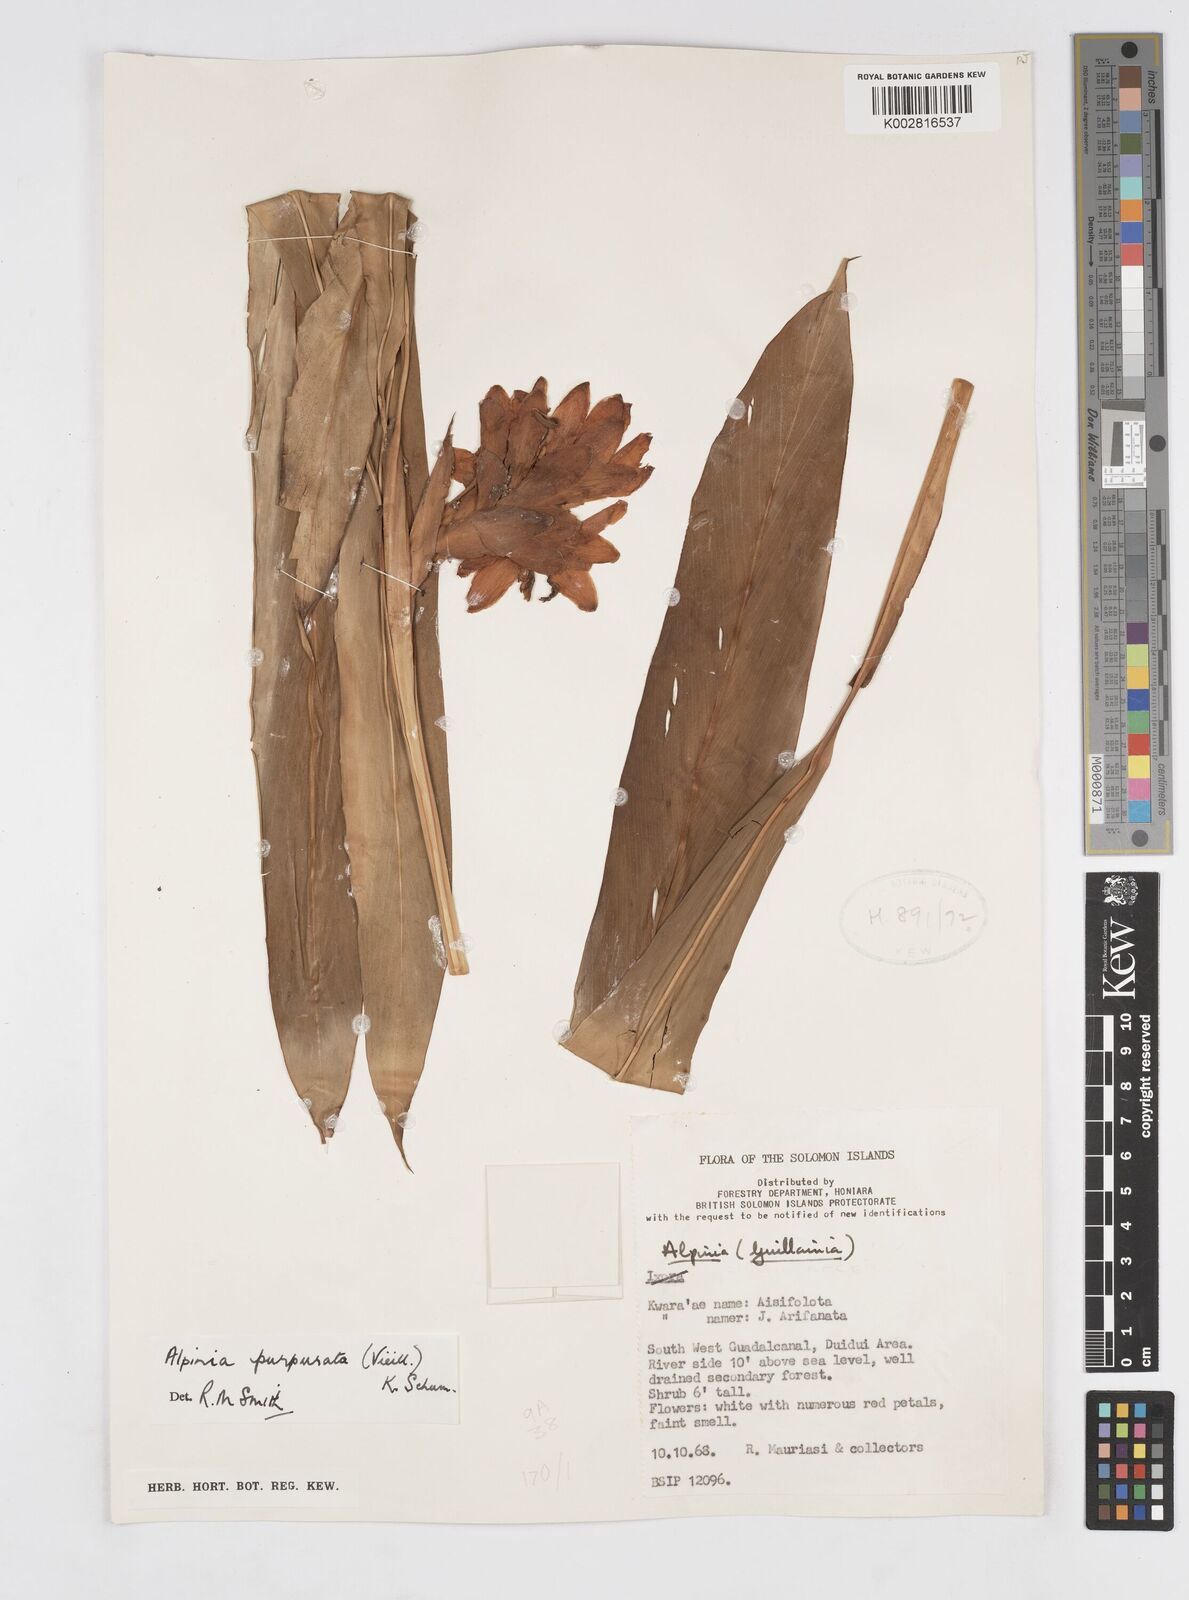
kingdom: Plantae
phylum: Tracheophyta
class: Liliopsida
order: Zingiberales
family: Zingiberaceae
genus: Alpinia
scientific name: Alpinia purpurata
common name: Red ginger
